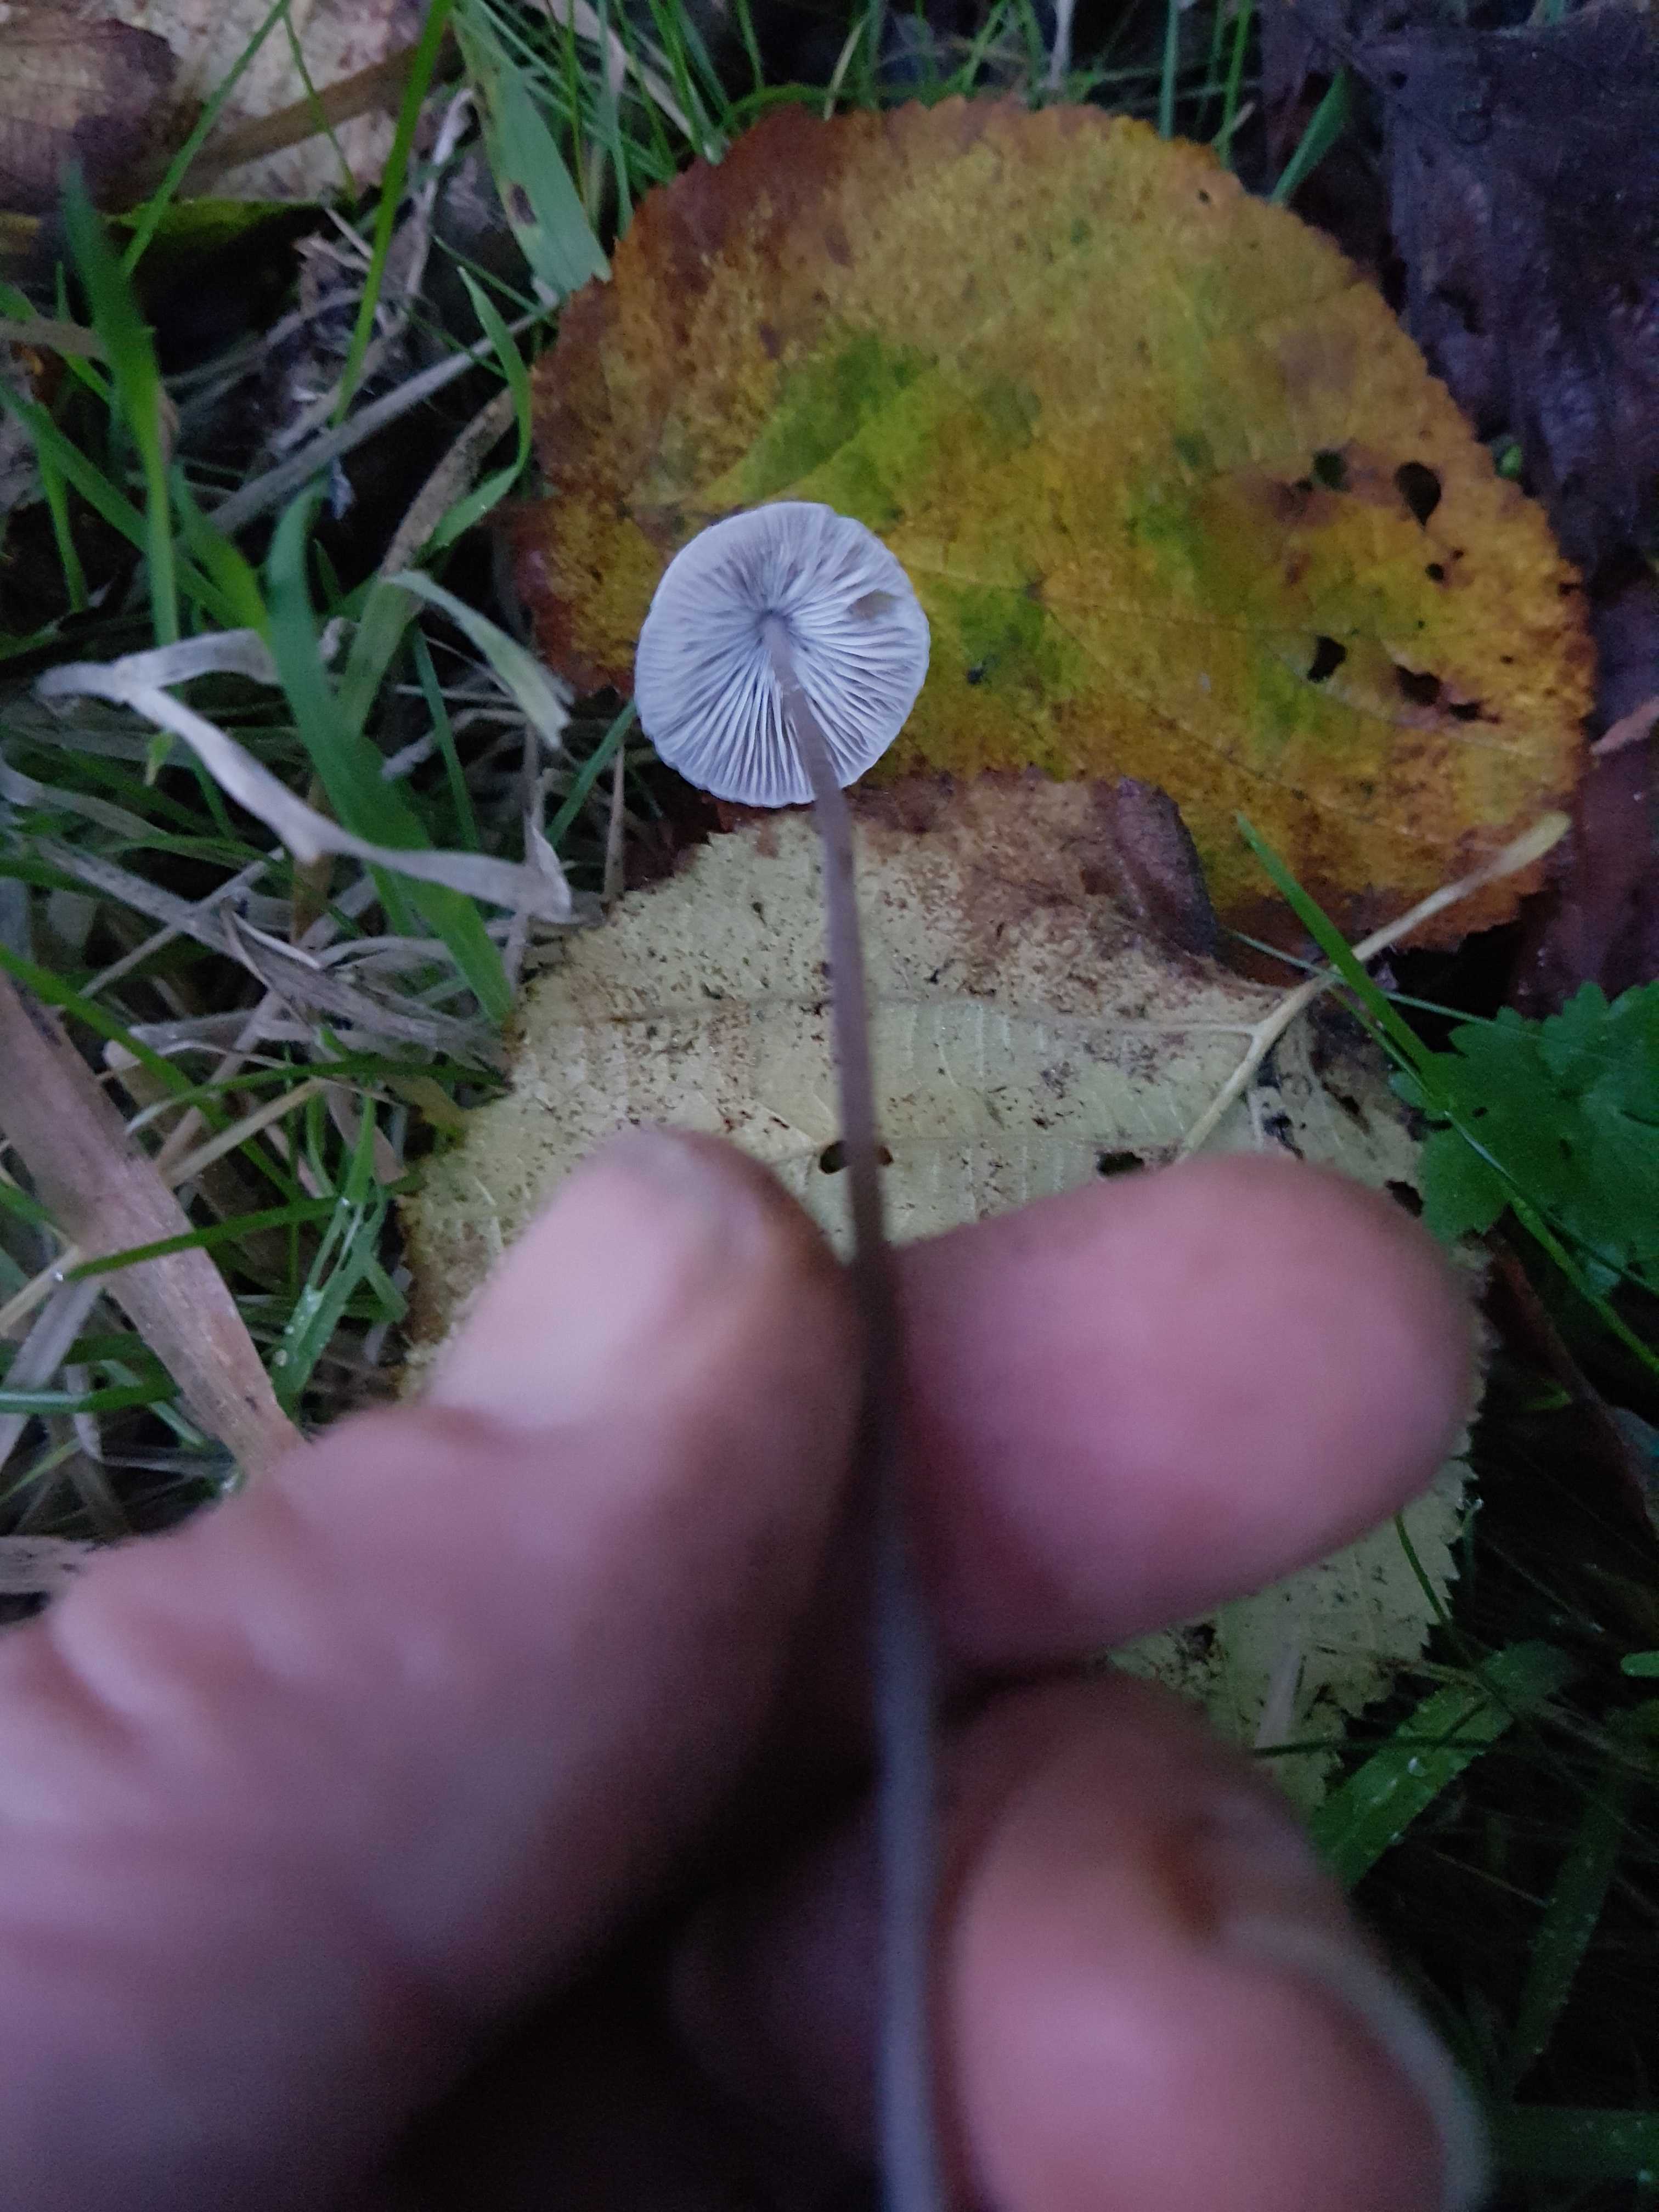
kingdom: Fungi
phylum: Basidiomycota
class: Agaricomycetes
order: Agaricales
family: Mycenaceae
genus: Mycena
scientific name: Mycena
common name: huesvamp
